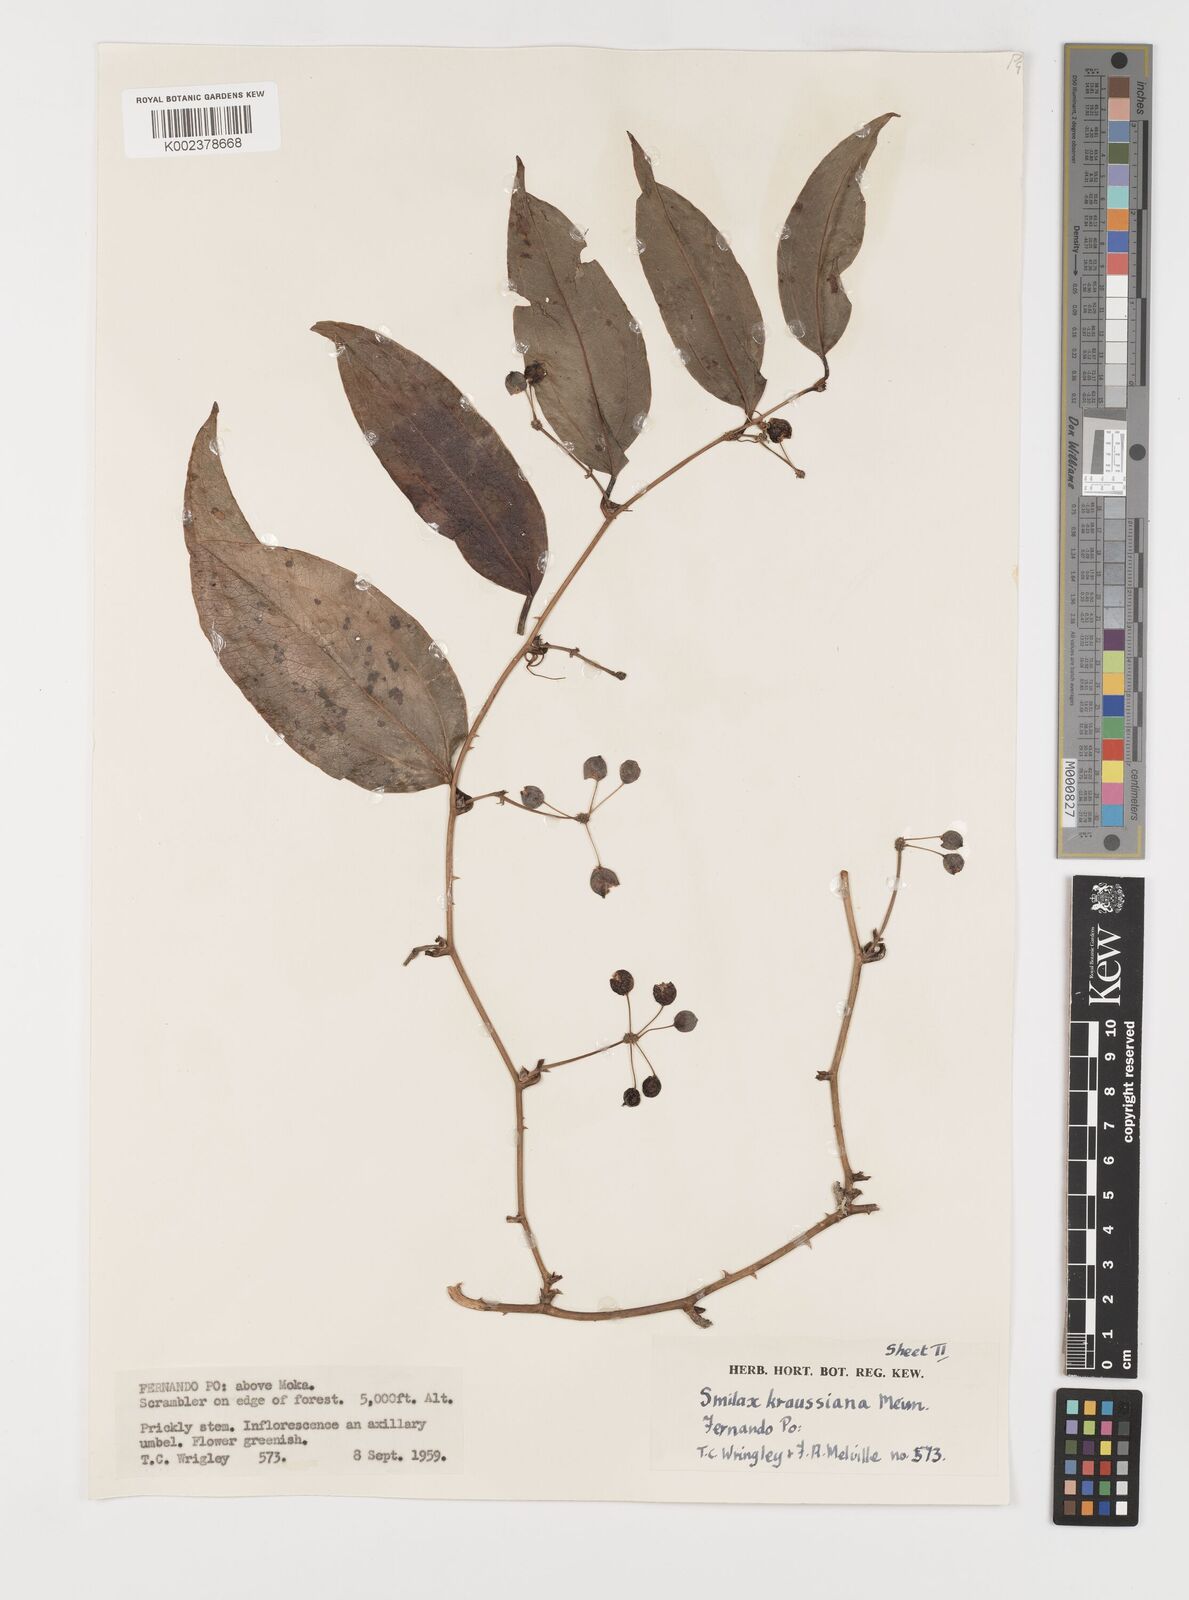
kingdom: Plantae
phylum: Tracheophyta
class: Liliopsida
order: Liliales
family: Smilacaceae
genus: Smilax
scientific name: Smilax anceps
